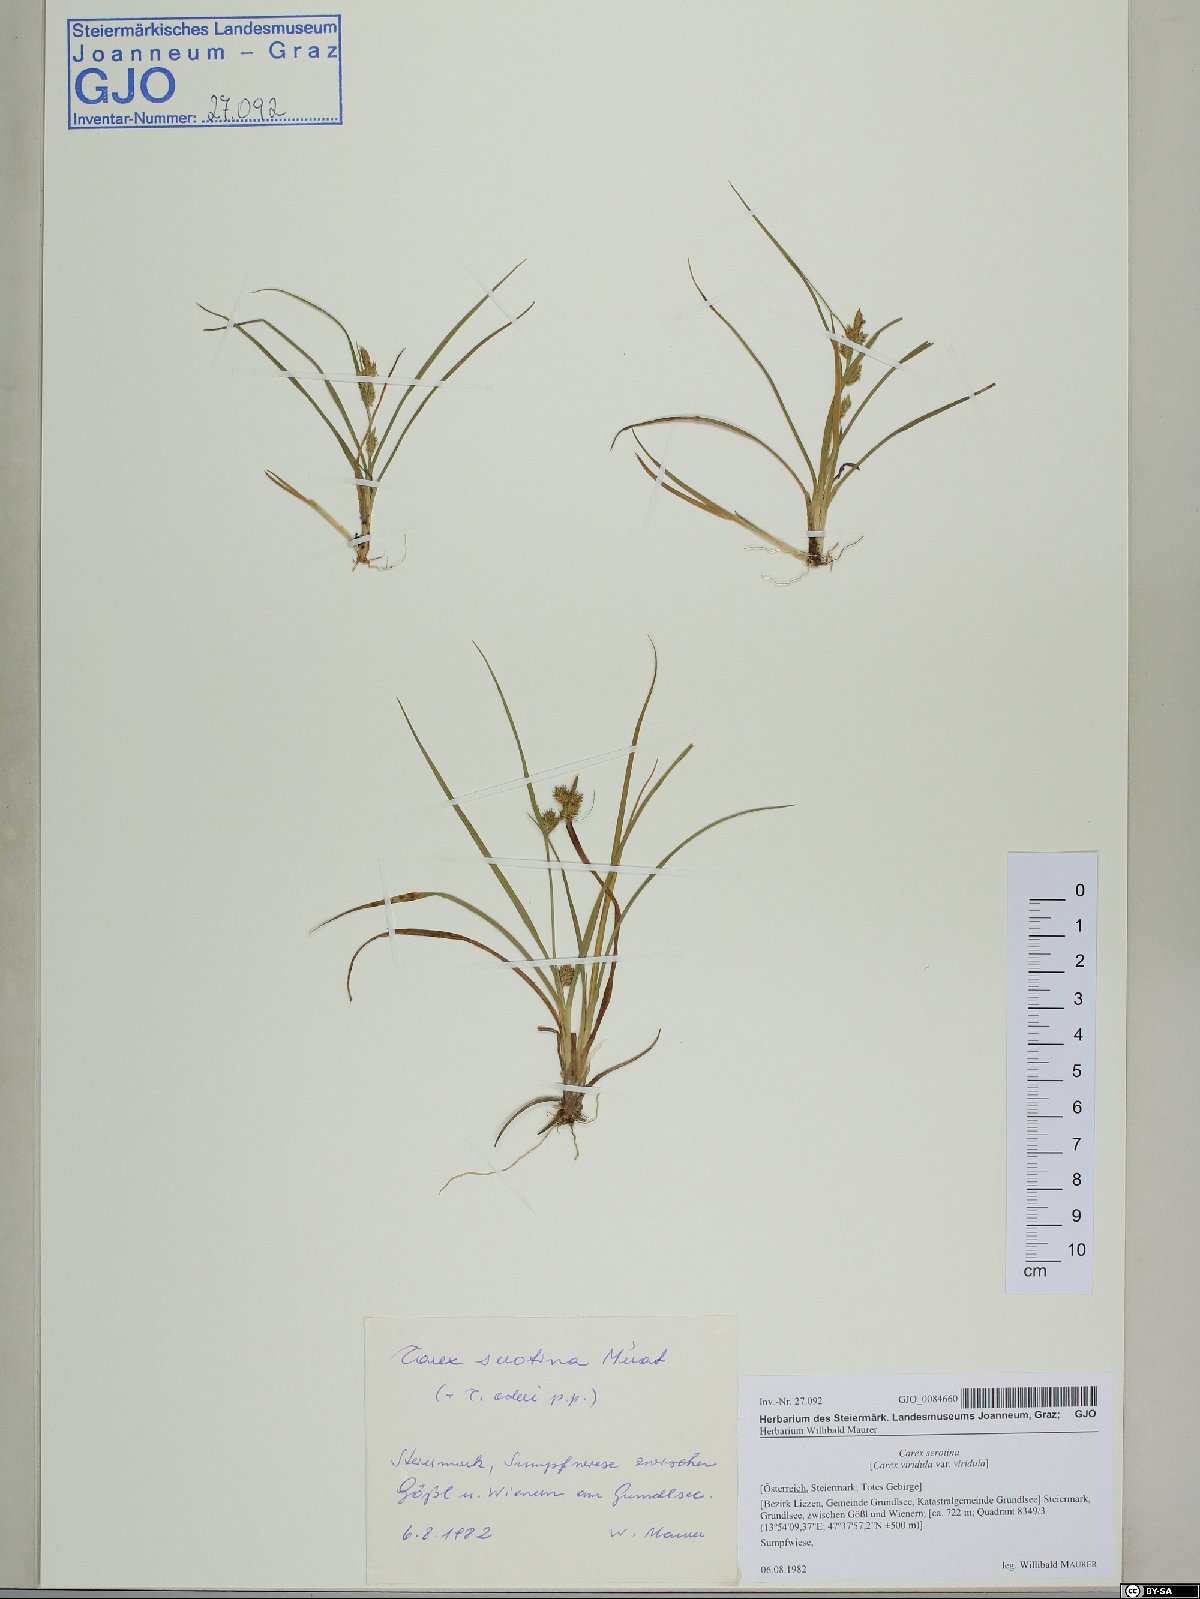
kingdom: Plantae
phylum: Tracheophyta
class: Liliopsida
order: Poales
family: Cyperaceae
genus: Carex
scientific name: Carex oederi
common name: Common & small-fruited yellow-sedge
